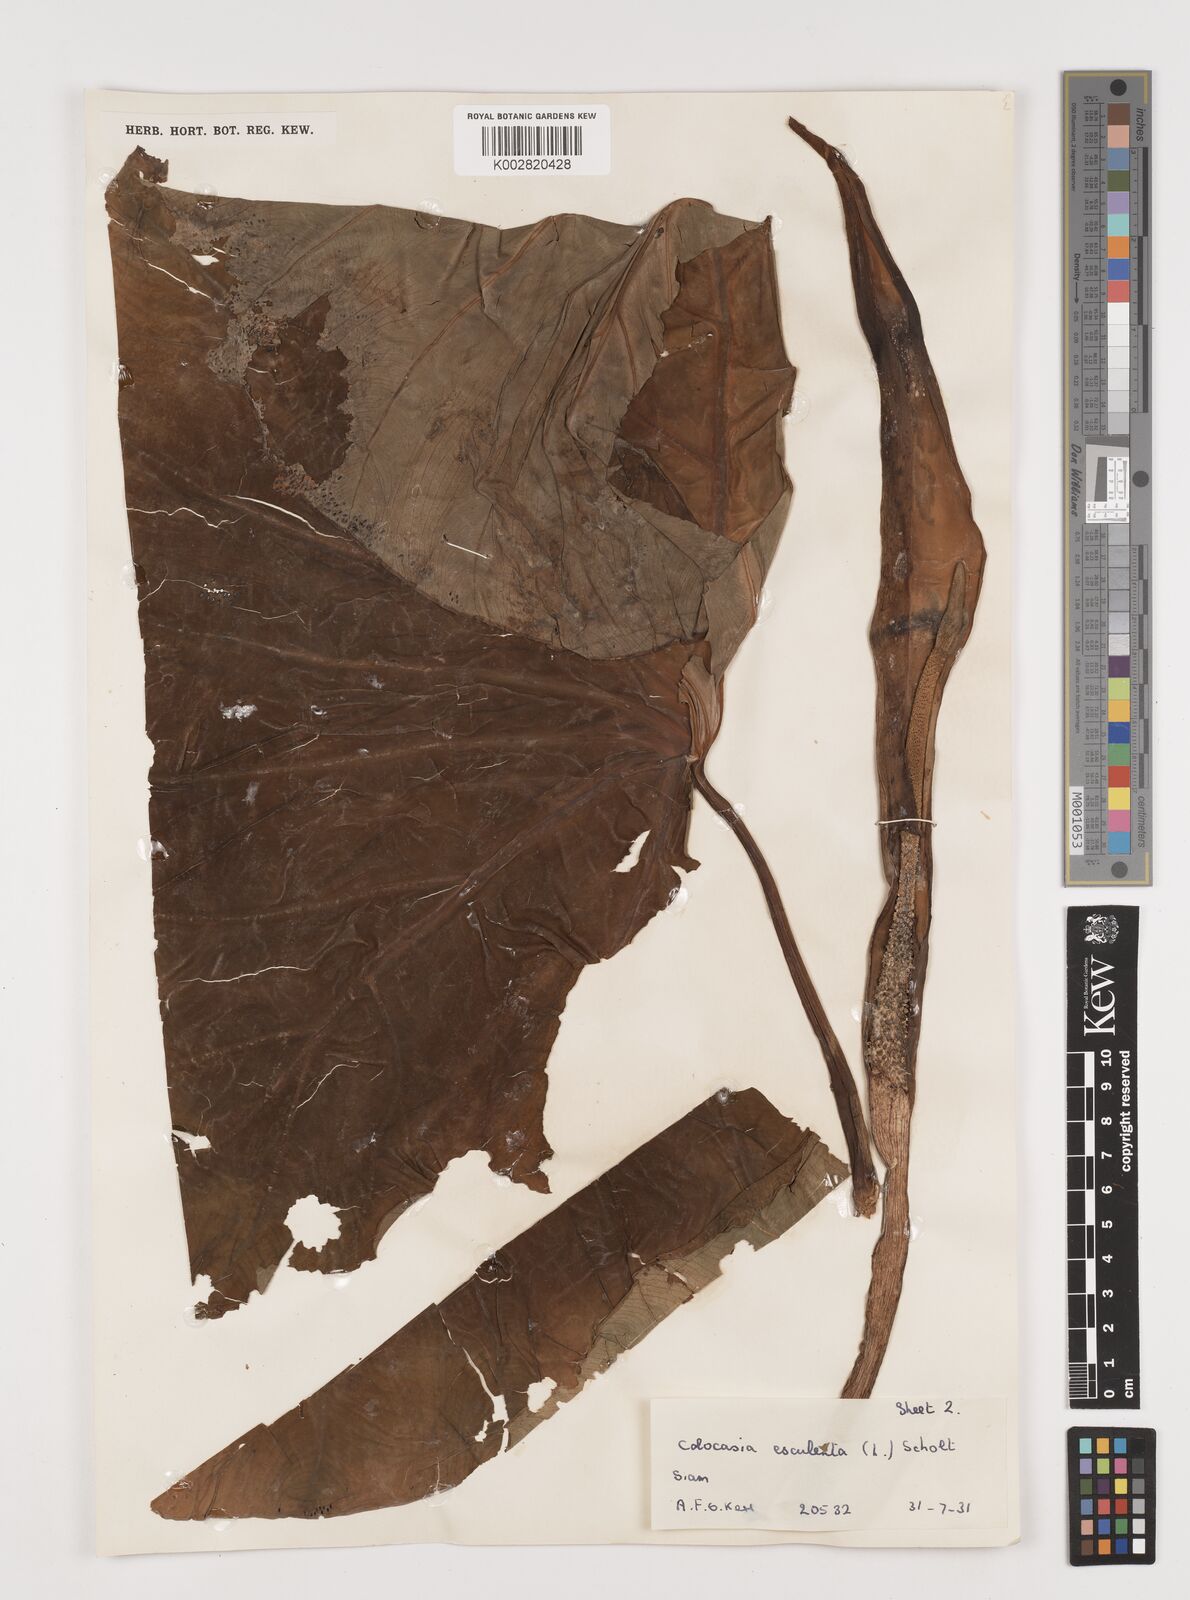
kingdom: Plantae
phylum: Tracheophyta
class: Liliopsida
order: Alismatales
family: Araceae
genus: Colocasia
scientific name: Colocasia esculenta
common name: Taro
